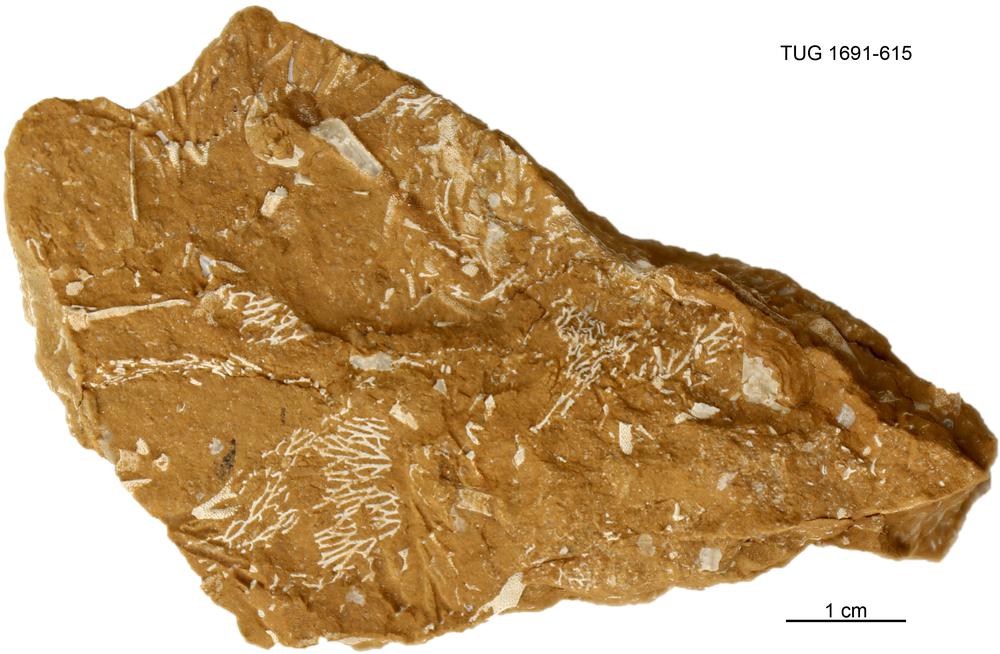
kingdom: Animalia
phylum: Bryozoa
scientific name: Bryozoa
